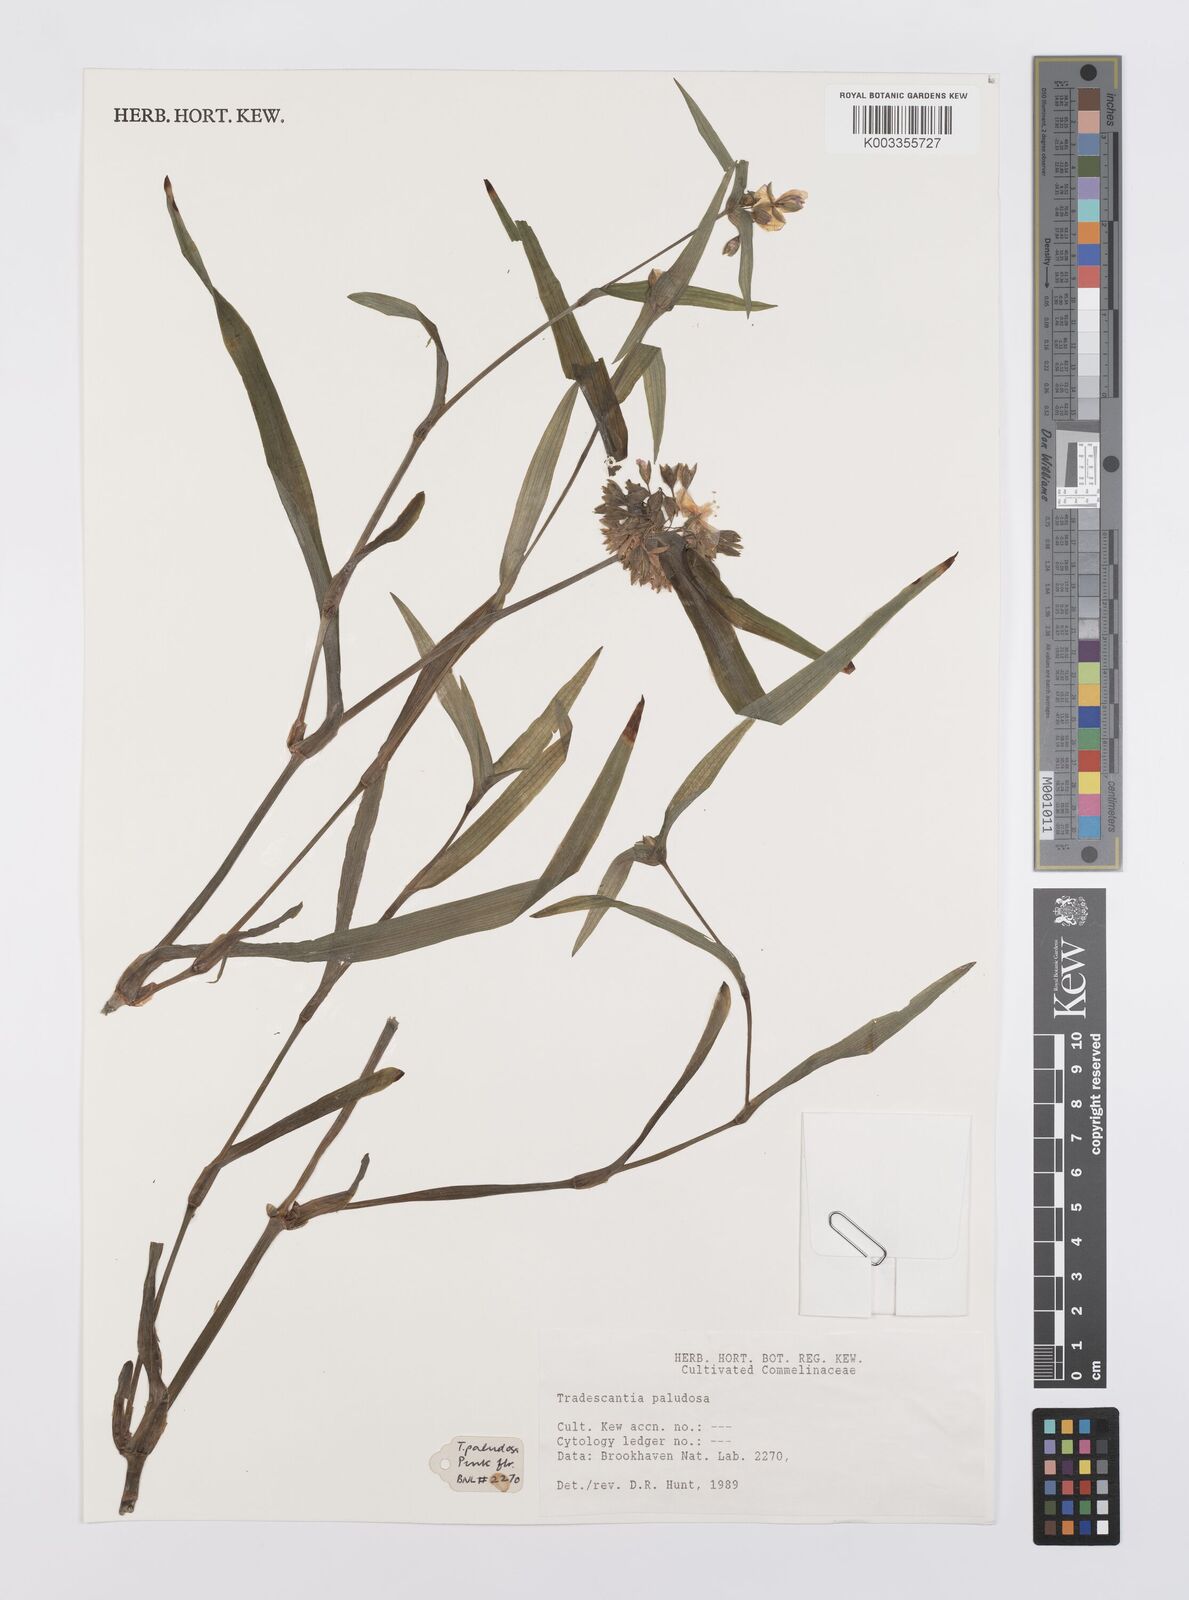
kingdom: Plantae
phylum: Tracheophyta
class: Liliopsida
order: Commelinales
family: Commelinaceae
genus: Tradescantia
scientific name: Tradescantia ohiensis
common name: Ohio spiderwort
